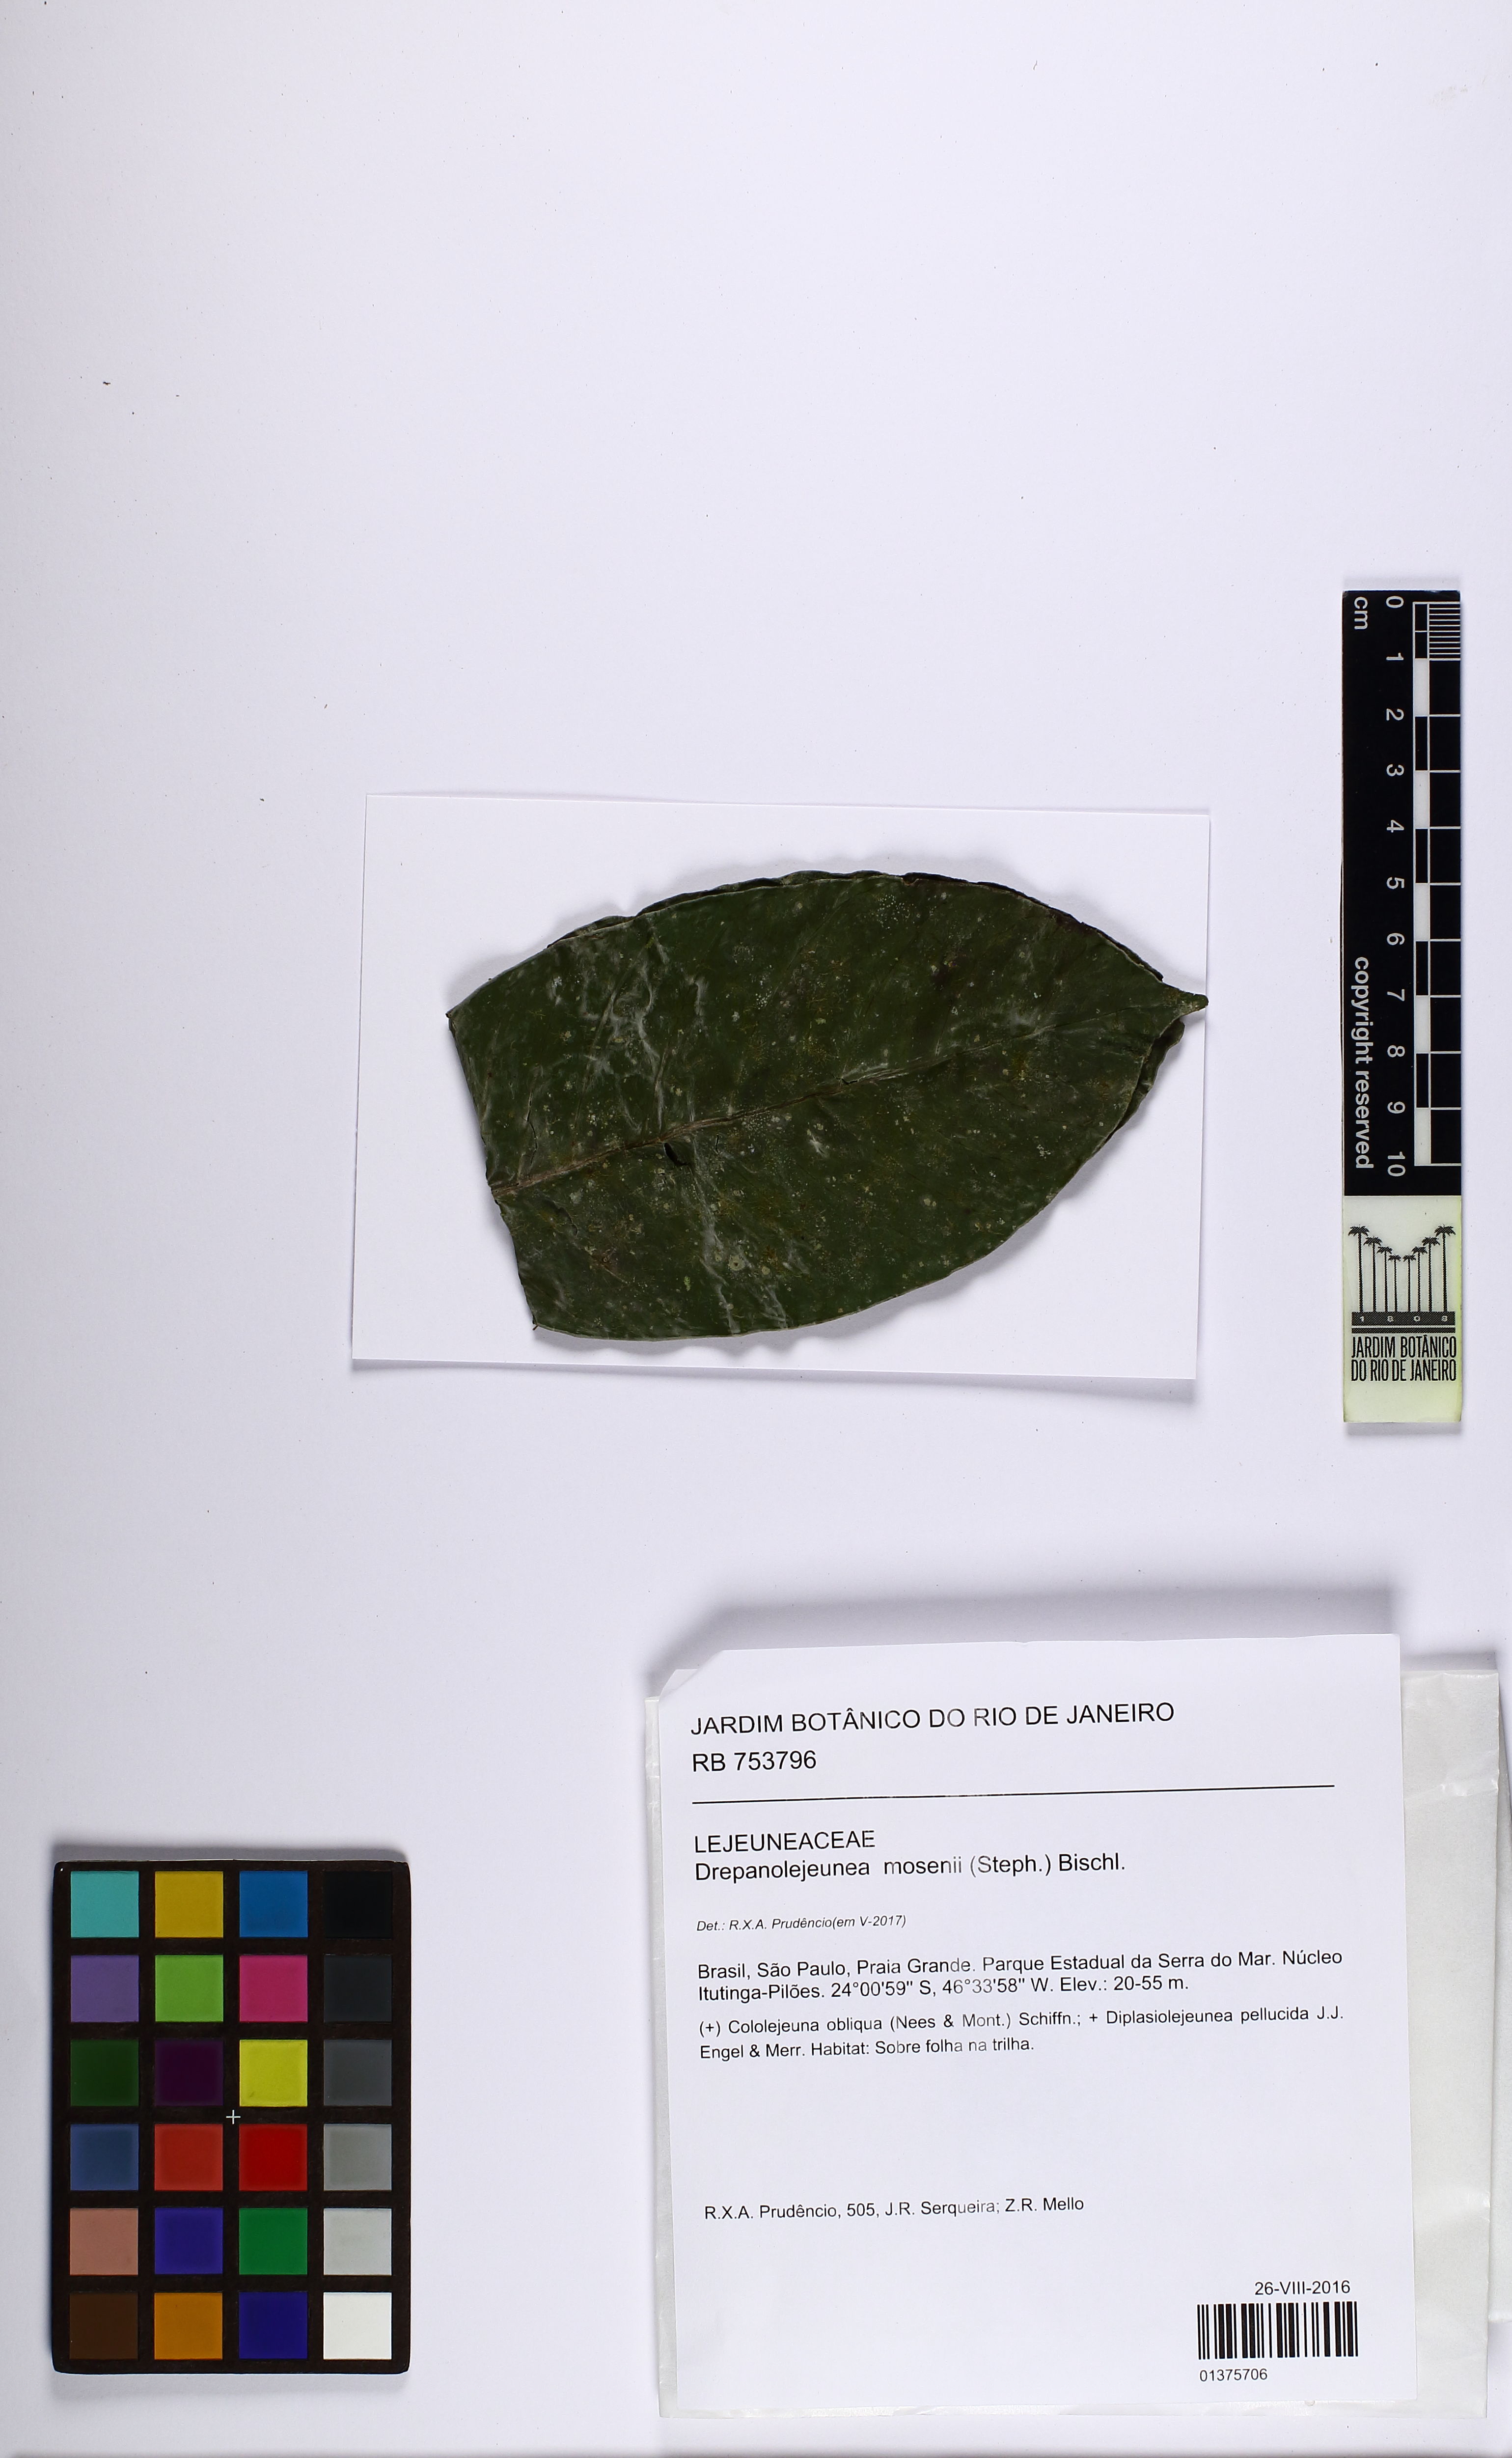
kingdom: Plantae
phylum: Marchantiophyta
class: Jungermanniopsida
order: Porellales
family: Lejeuneaceae
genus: Drepanolejeunea
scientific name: Drepanolejeunea mosenii
